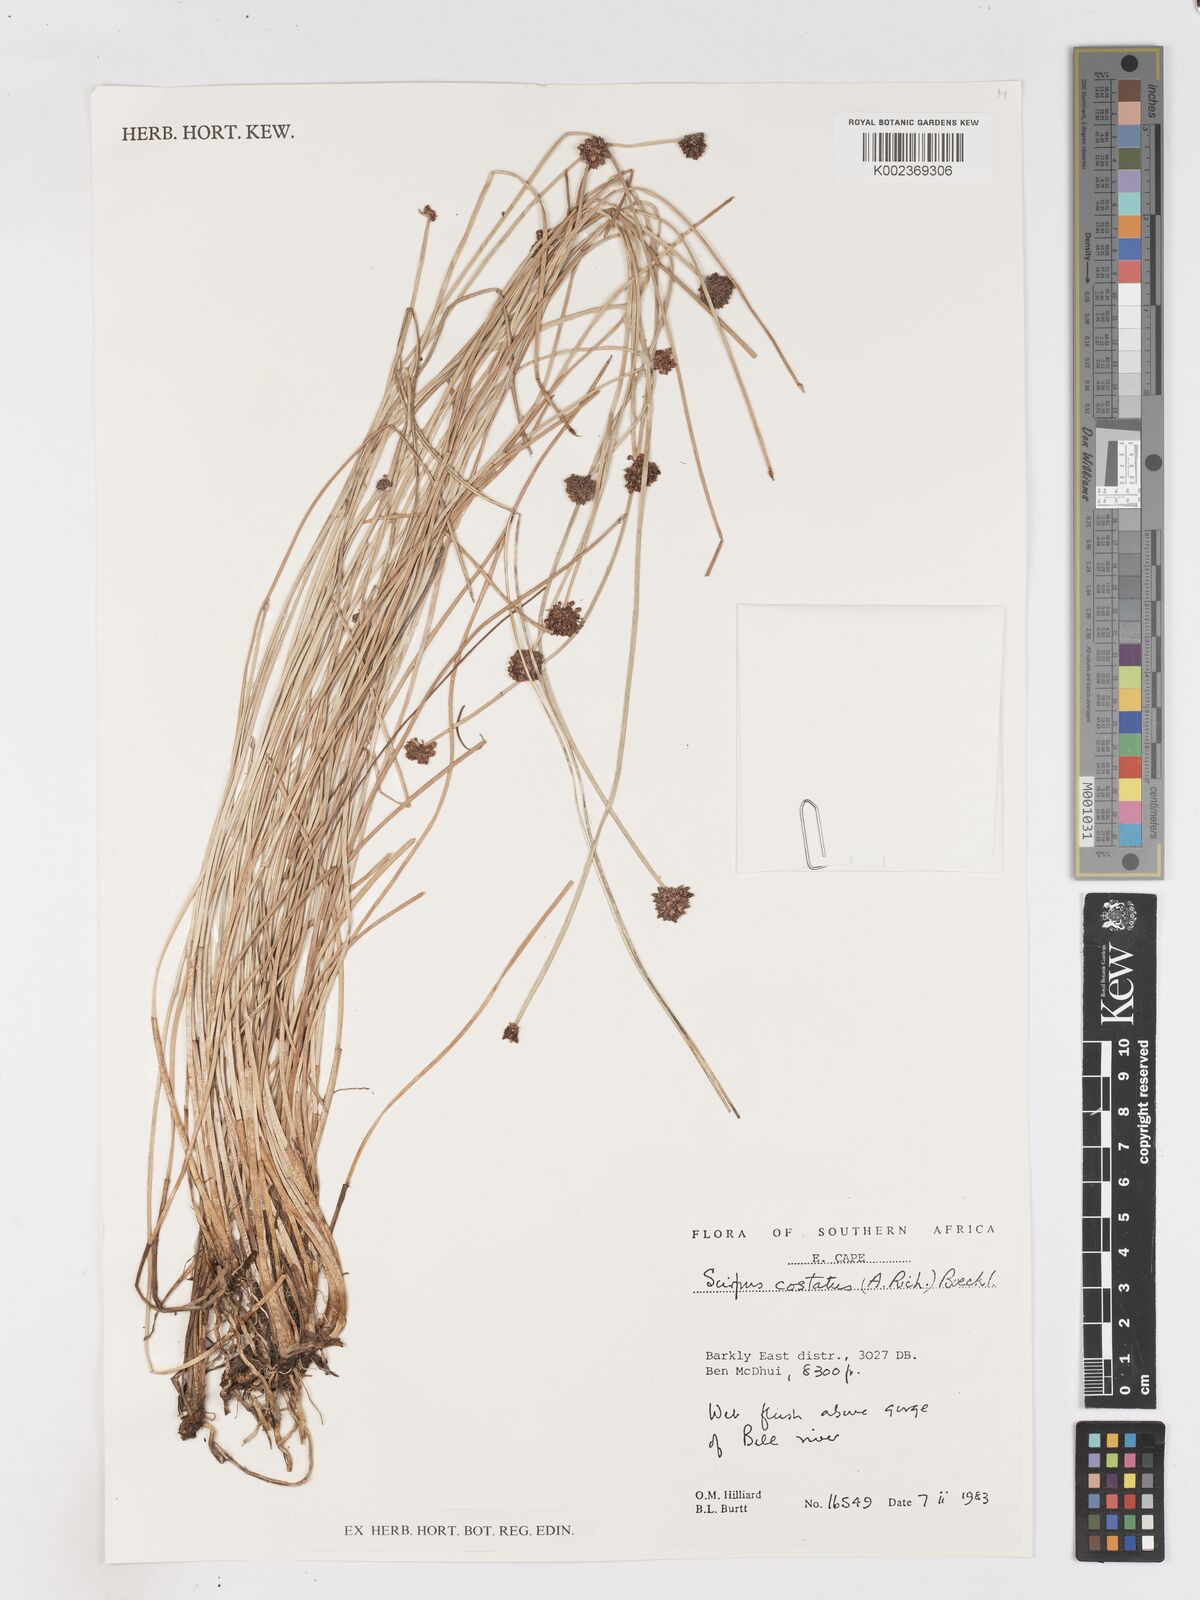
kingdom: Plantae
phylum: Tracheophyta
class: Liliopsida
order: Poales
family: Cyperaceae
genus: Isolepis
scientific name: Isolepis costata
